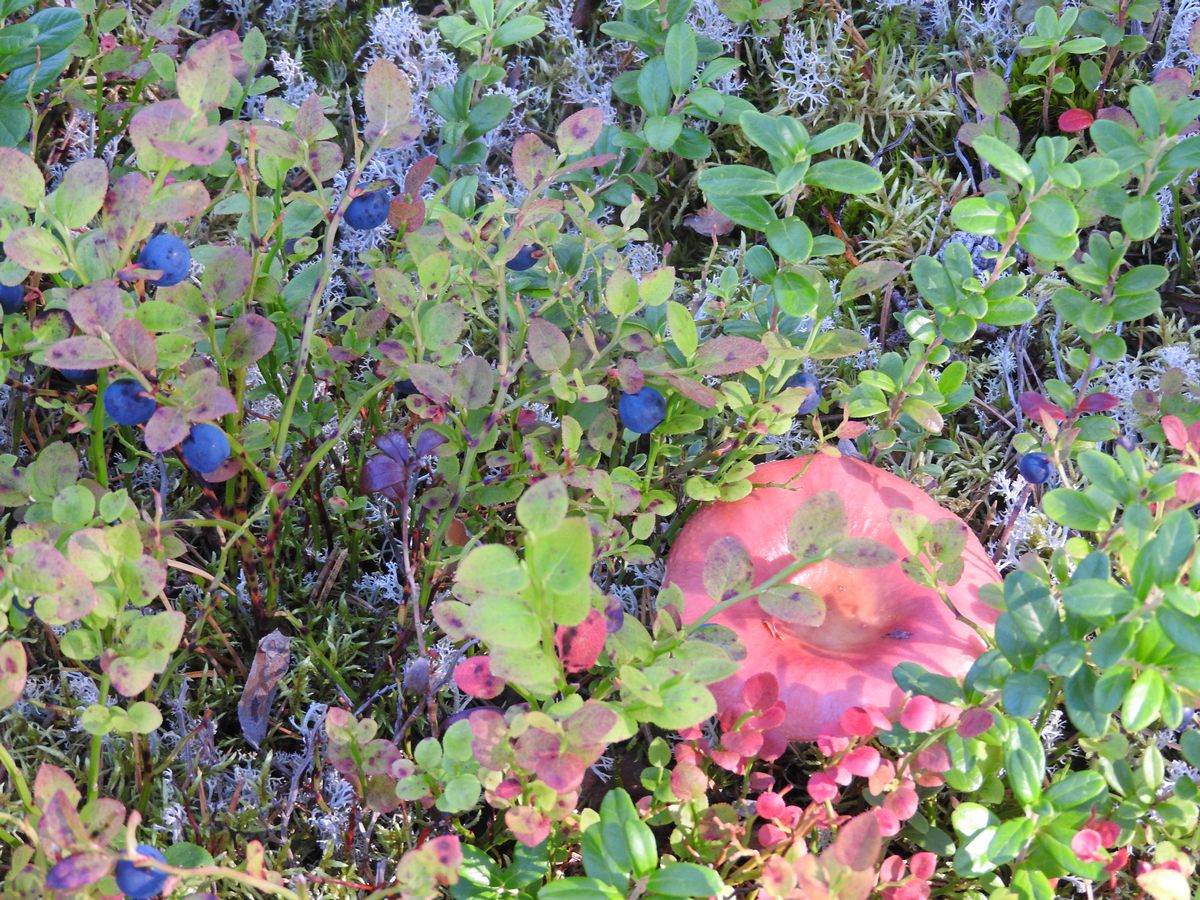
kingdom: Plantae
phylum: Tracheophyta
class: Magnoliopsida
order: Ericales
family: Ericaceae
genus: Vaccinium
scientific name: Vaccinium myrtillus
